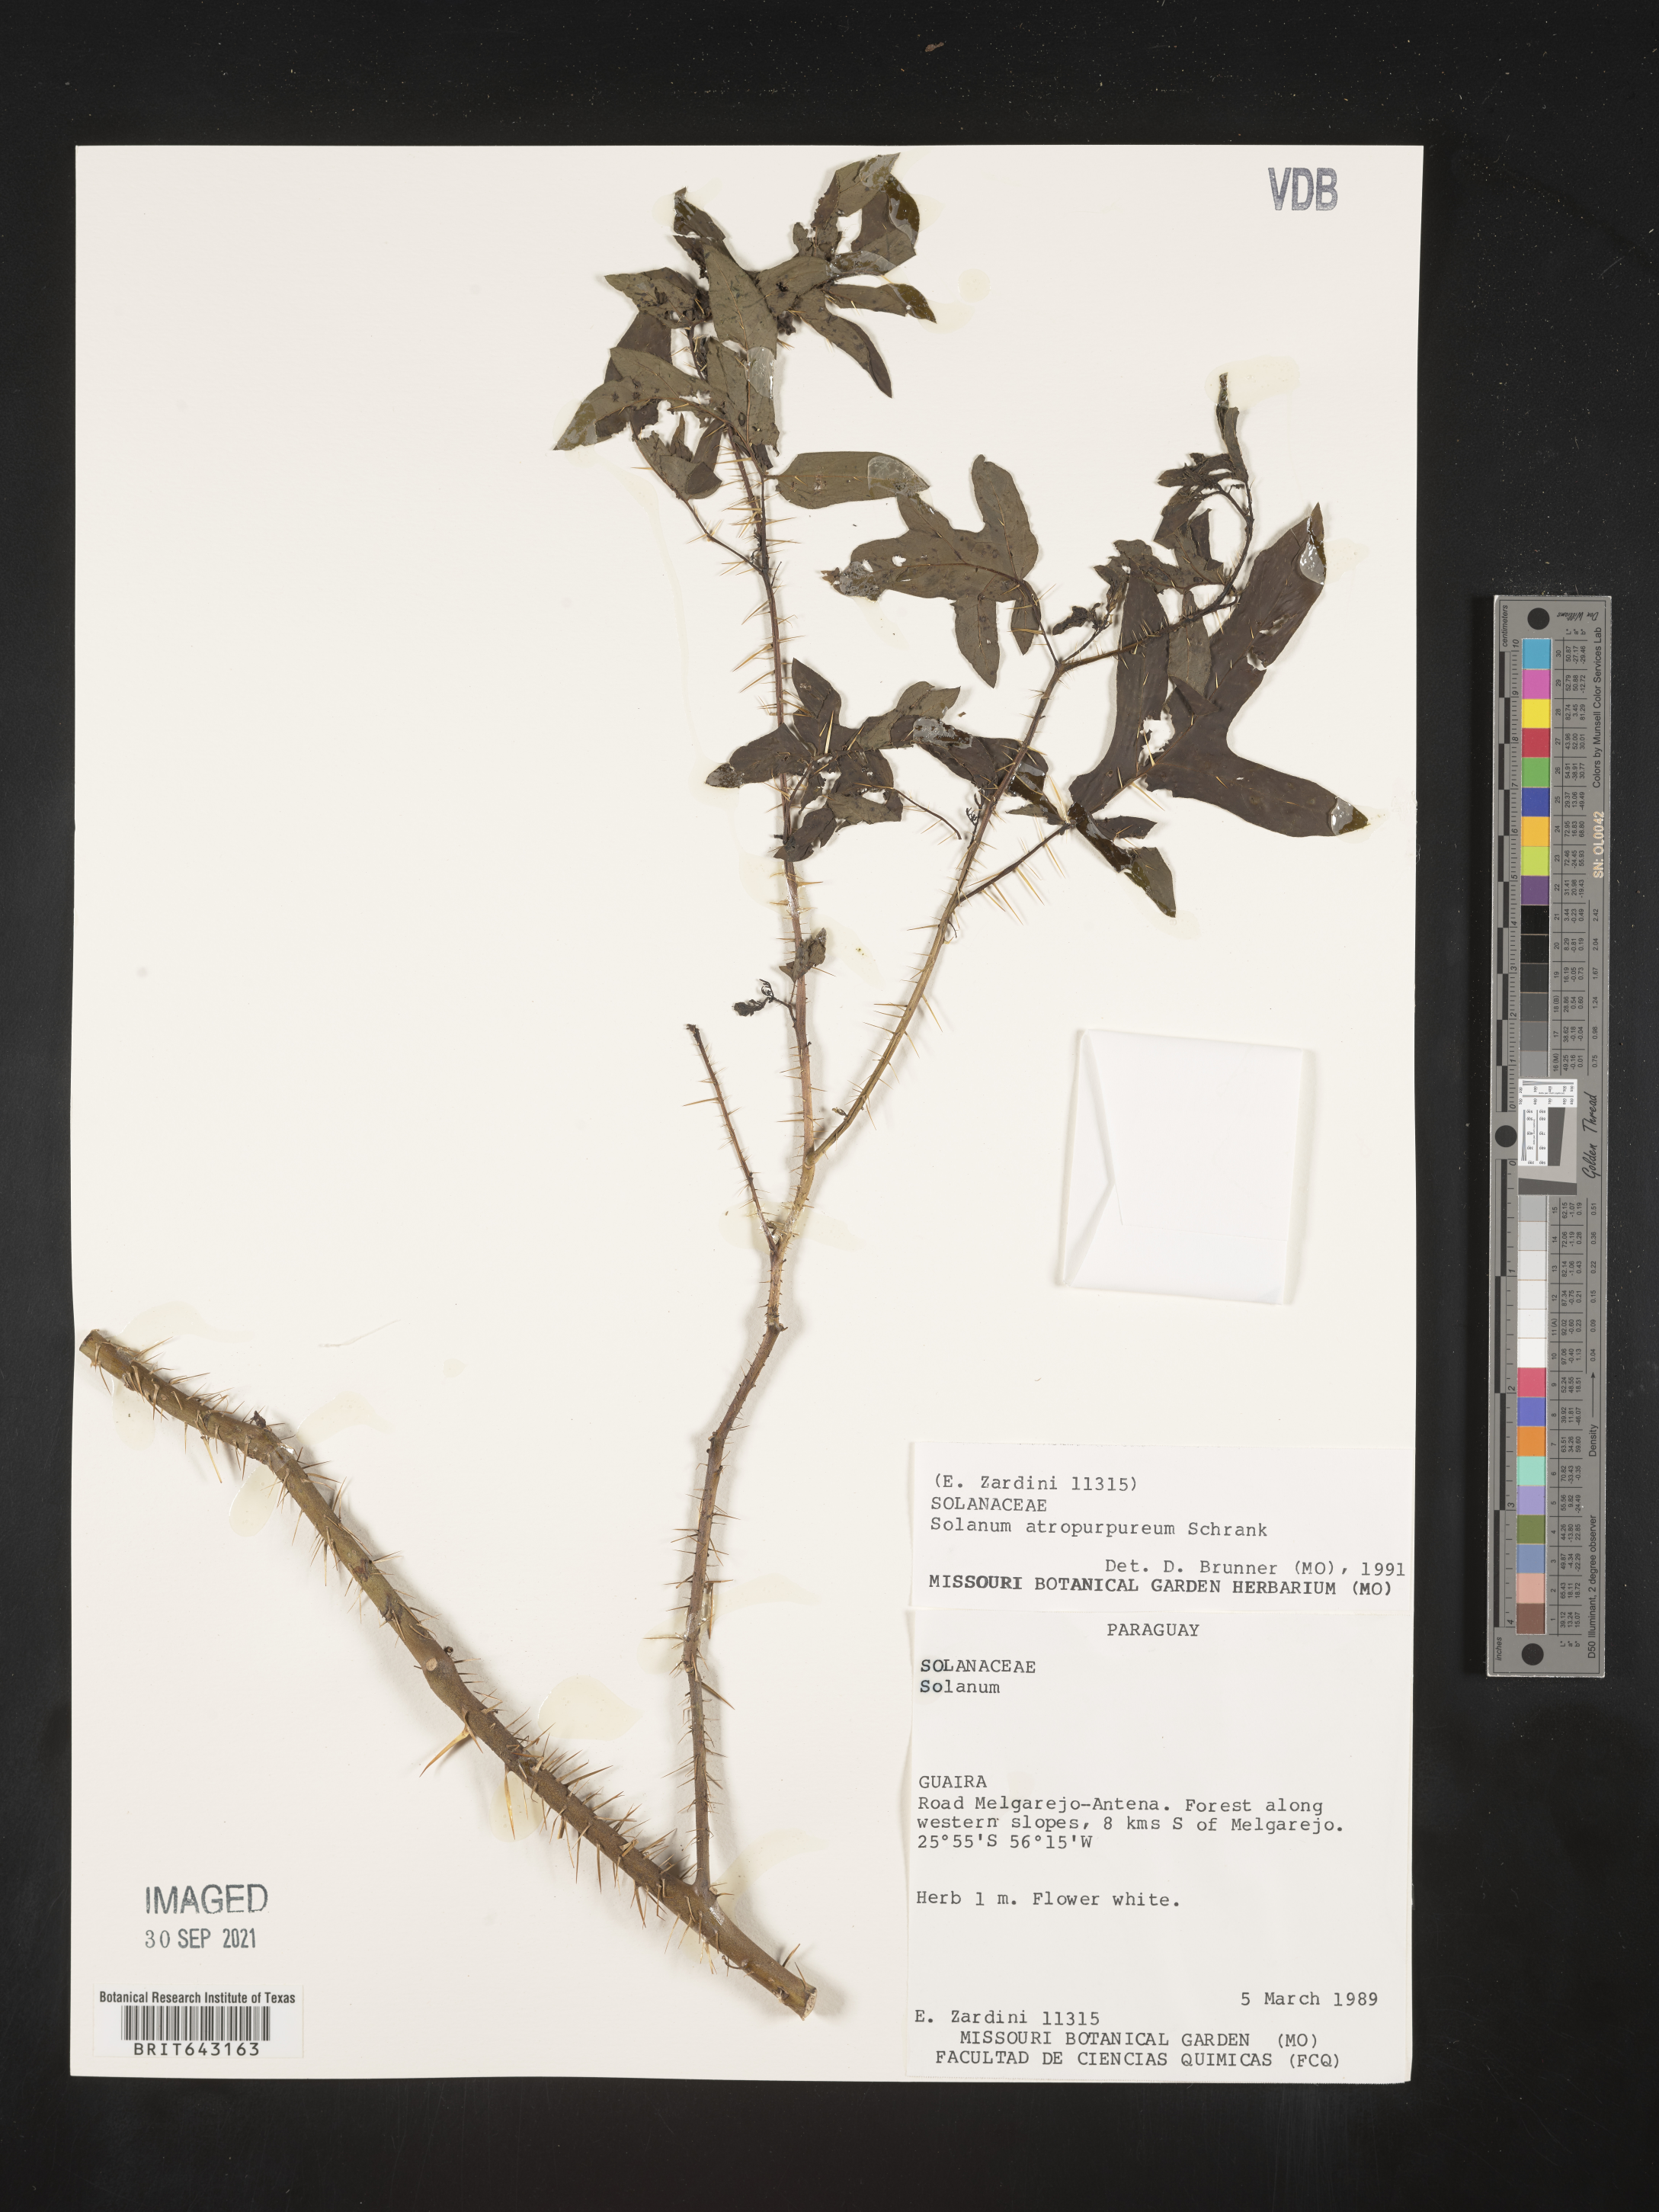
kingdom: Plantae
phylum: Tracheophyta
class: Magnoliopsida
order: Solanales
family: Solanaceae
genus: Solanum
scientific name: Solanum
